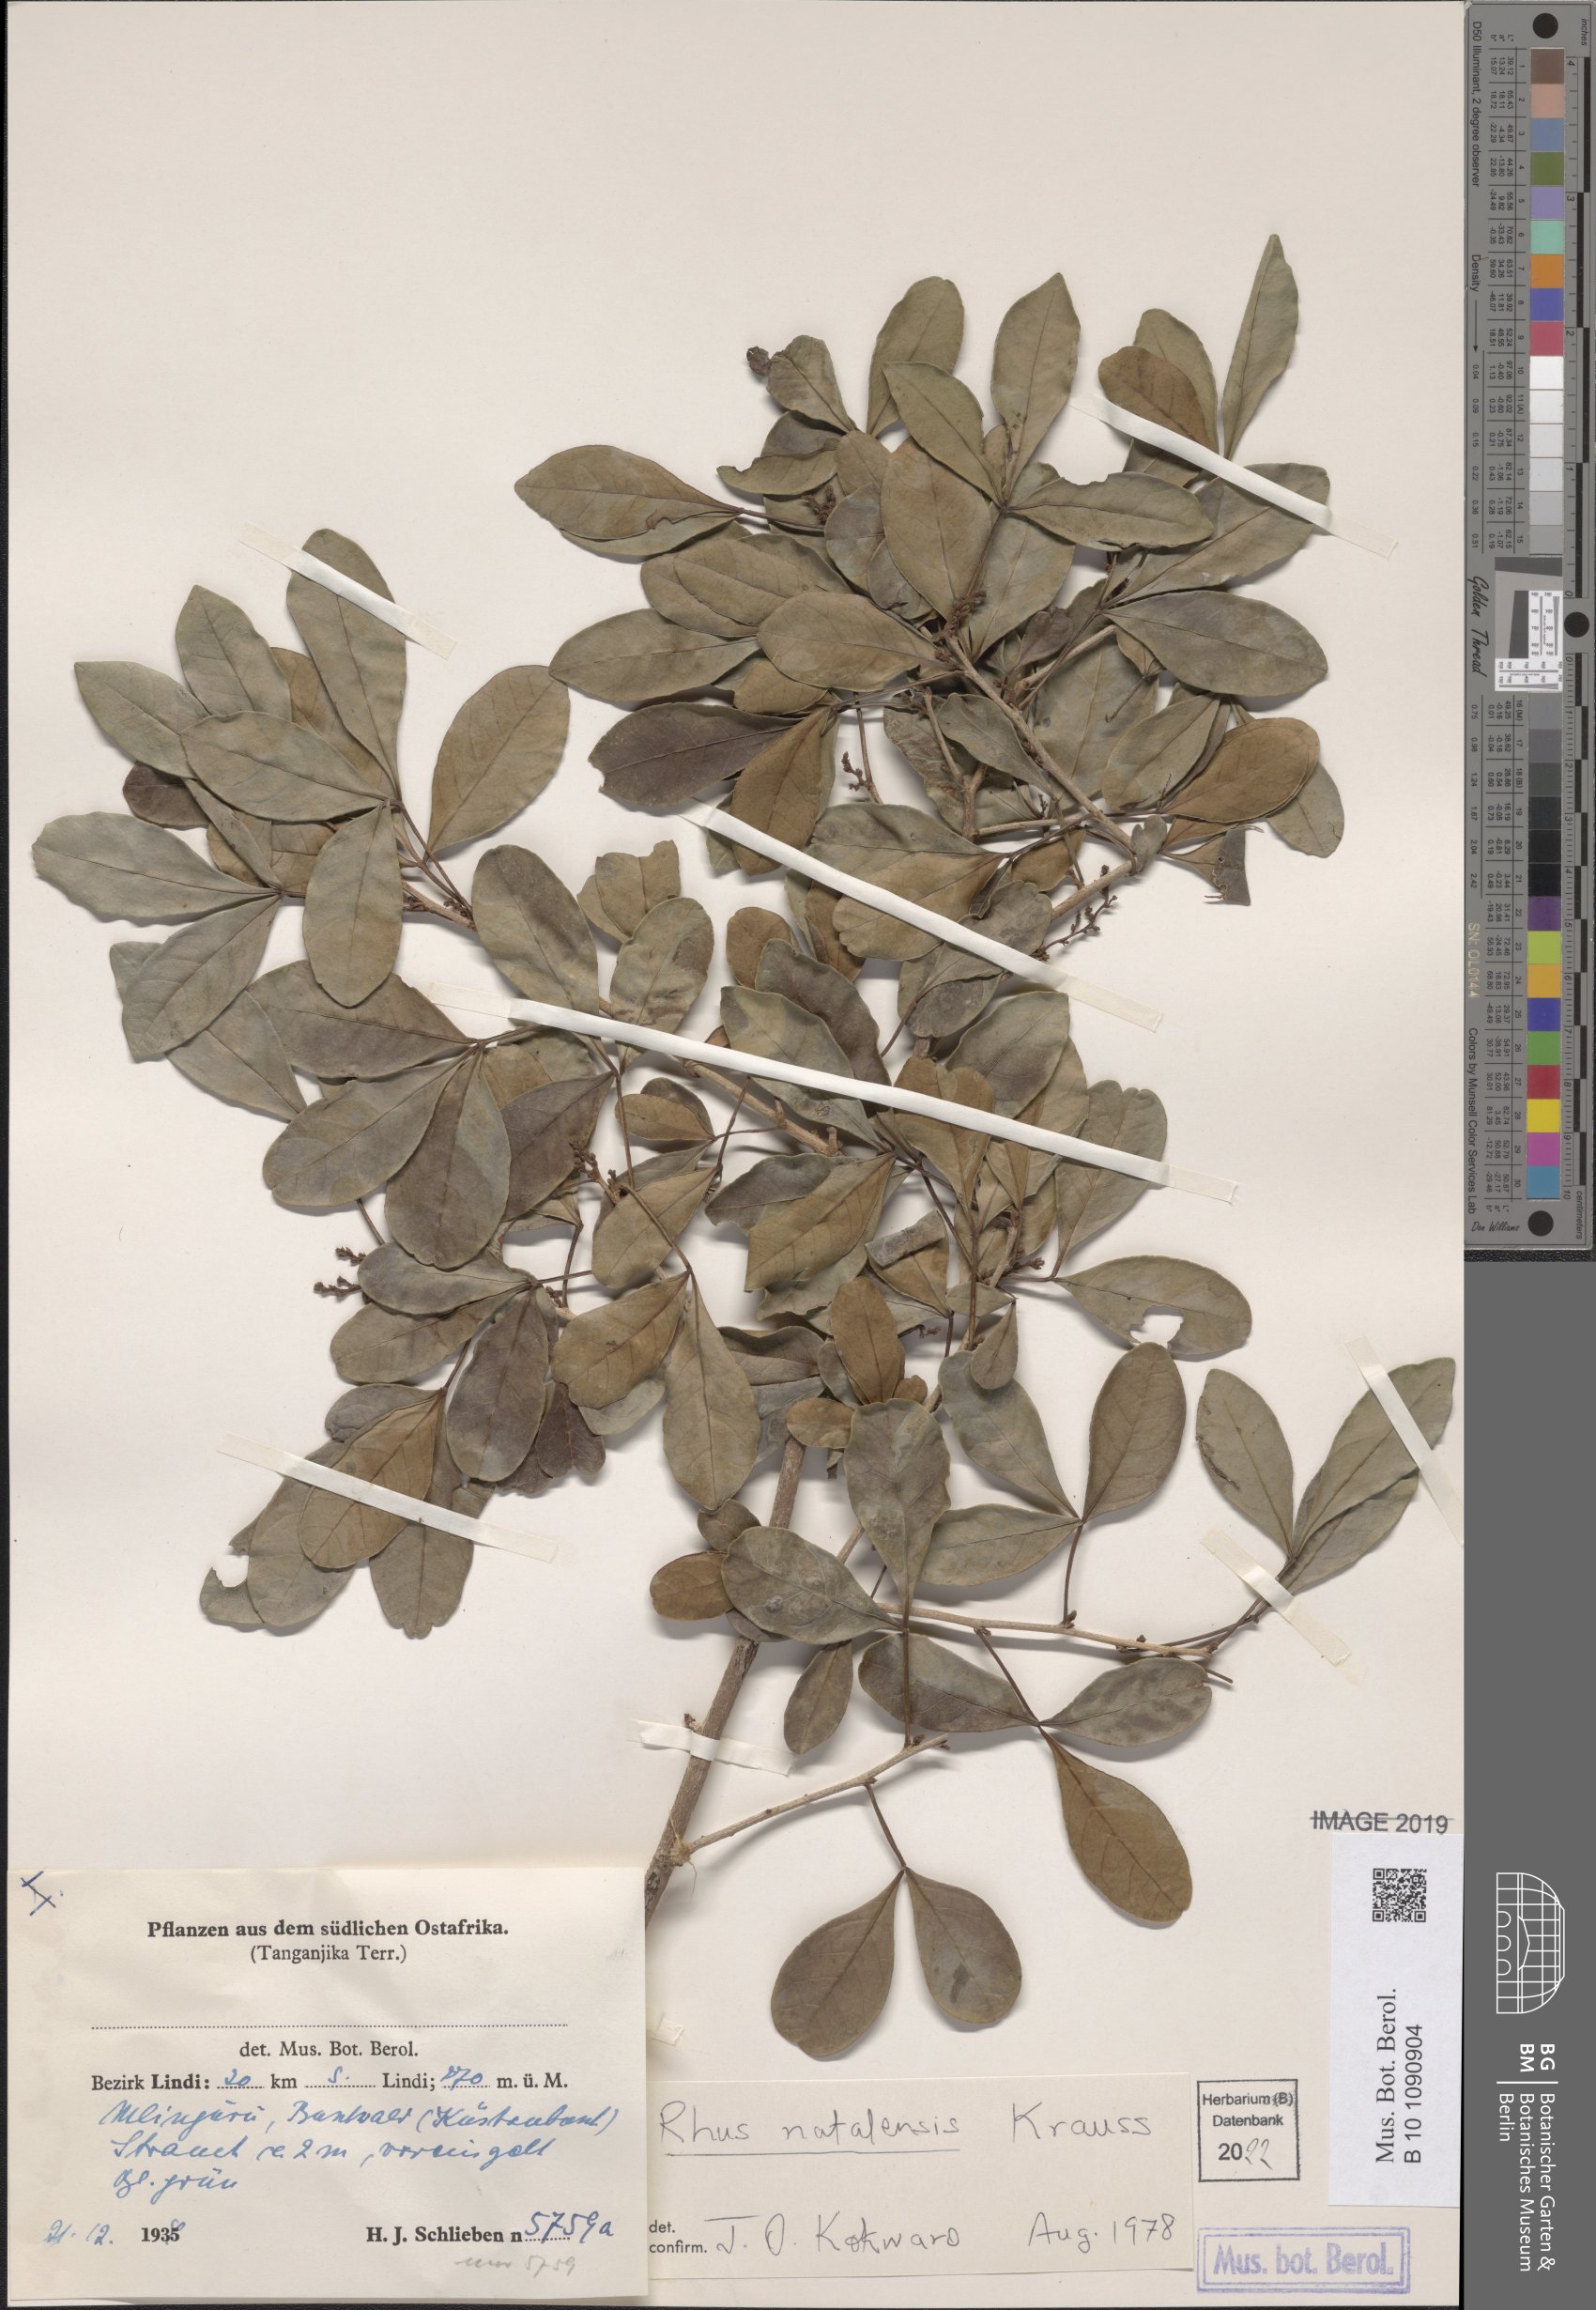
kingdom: Plantae
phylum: Tracheophyta
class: Magnoliopsida
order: Sapindales
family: Anacardiaceae
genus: Searsia
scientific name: Searsia natalensis
